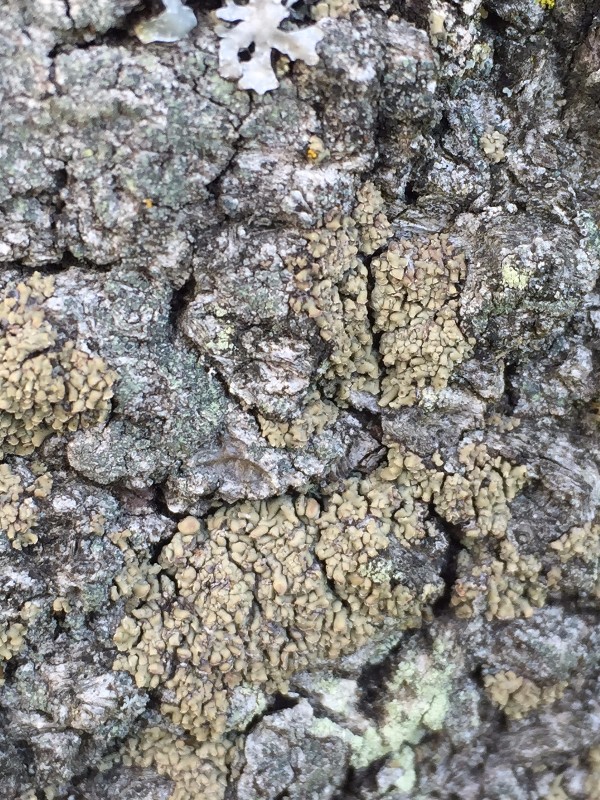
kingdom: Fungi
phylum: Ascomycota
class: Lecanoromycetes
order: Umbilicariales
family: Ophioparmaceae
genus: Hypocenomyce
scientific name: Hypocenomyce scalaris
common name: småskællet muslinglav
